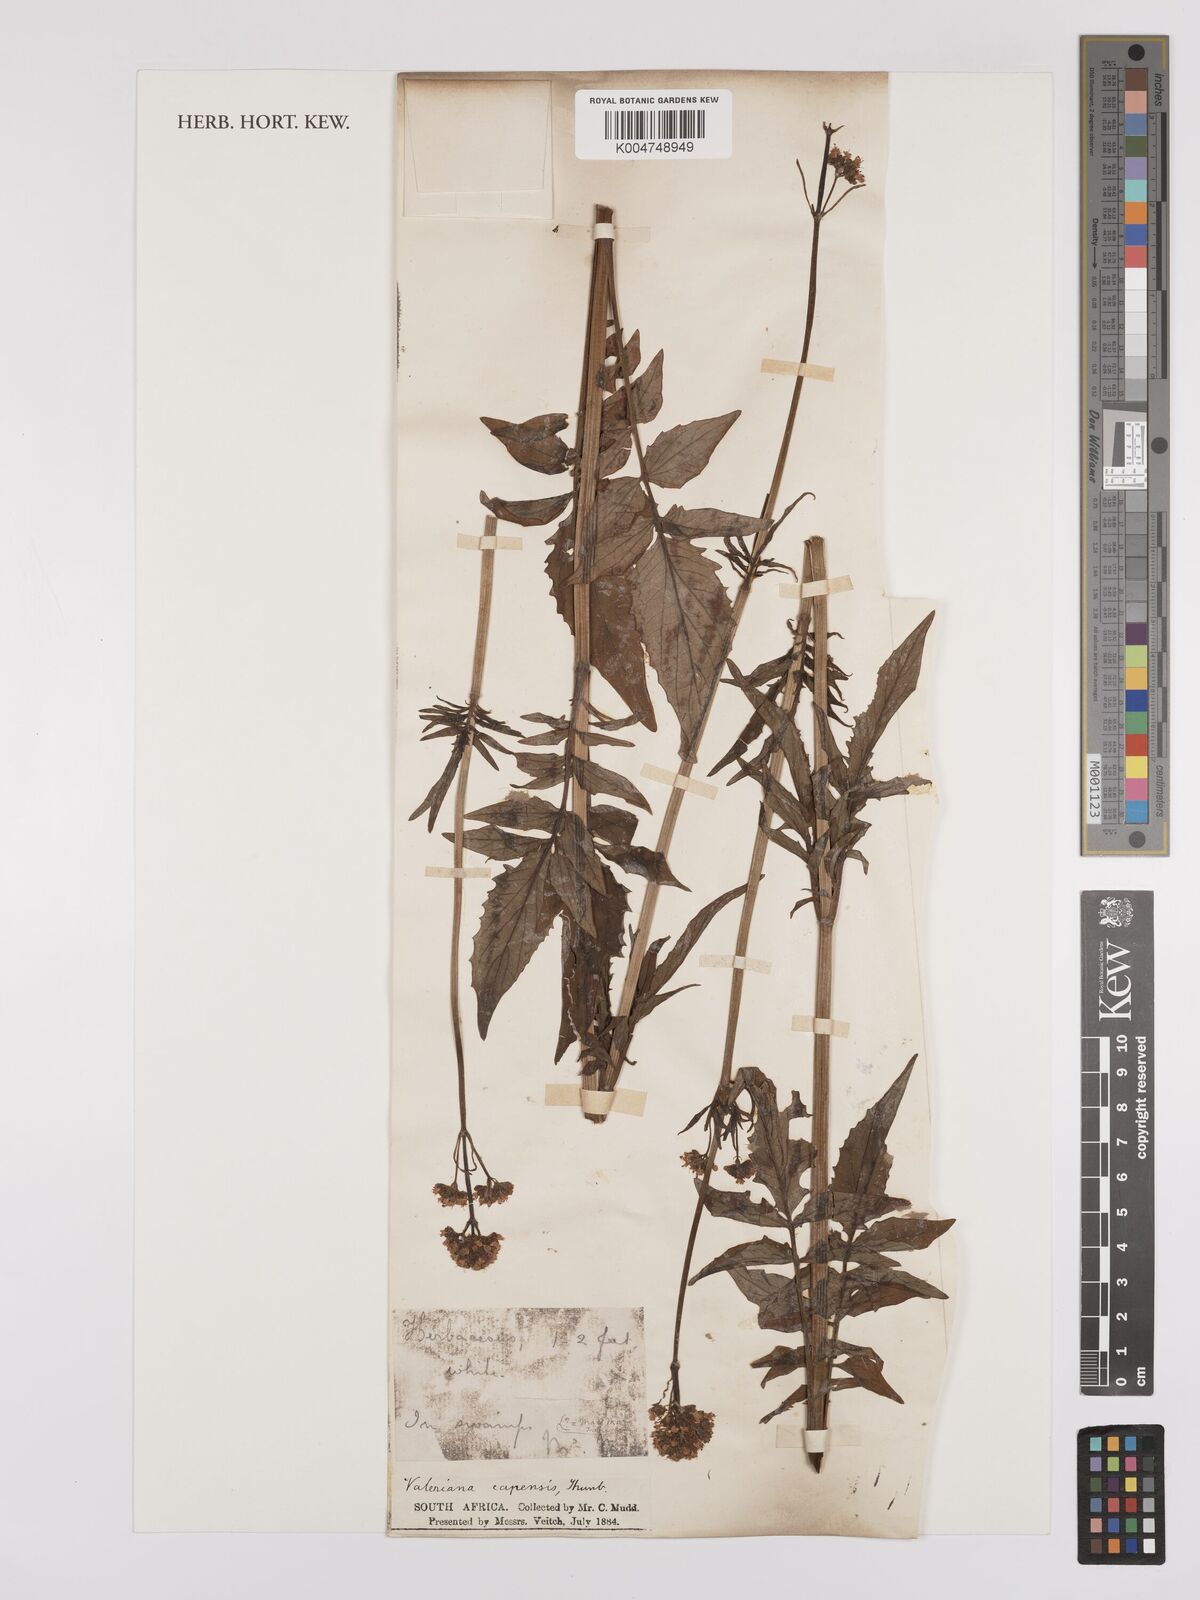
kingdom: Plantae
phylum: Tracheophyta
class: Magnoliopsida
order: Dipsacales
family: Caprifoliaceae
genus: Valeriana
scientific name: Valeriana capensis
